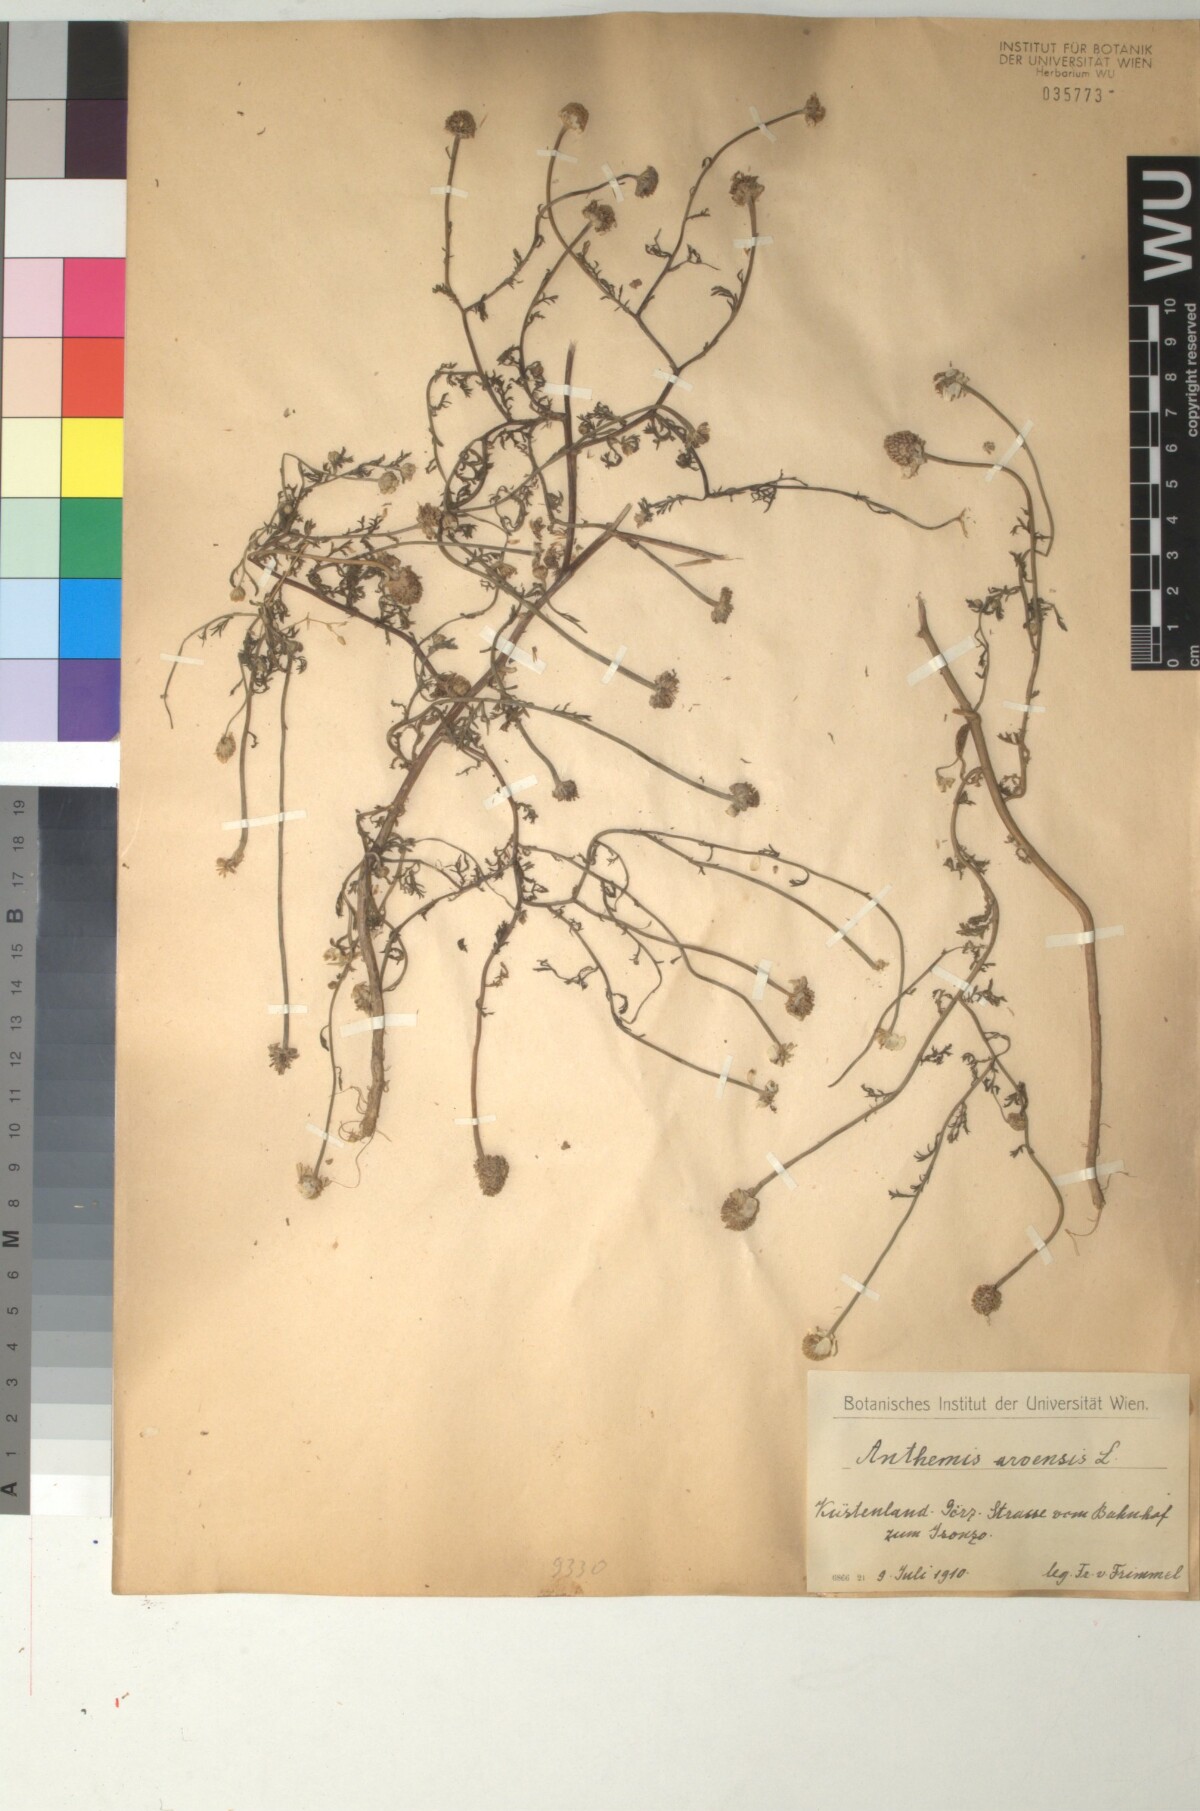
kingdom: Plantae
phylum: Tracheophyta
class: Magnoliopsida
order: Asterales
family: Asteraceae
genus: Anthemis
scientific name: Anthemis arvensis
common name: Corn chamomile
